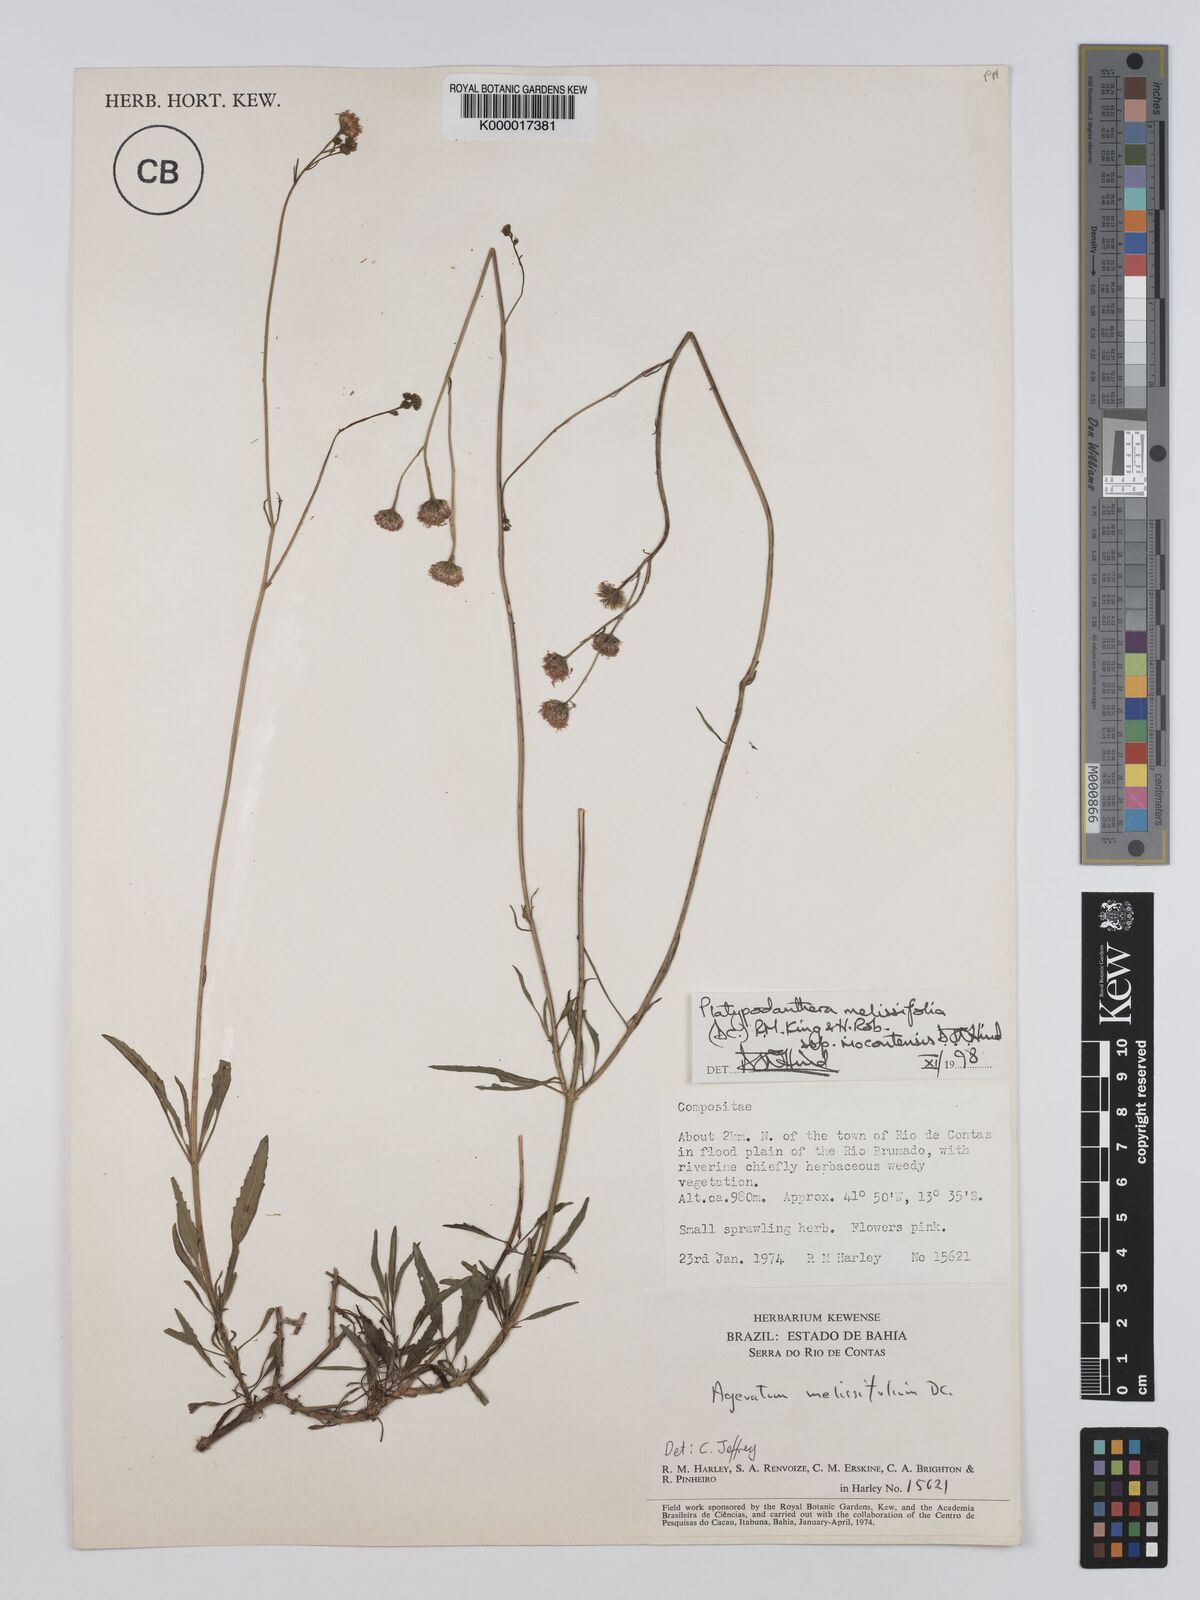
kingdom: Plantae
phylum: Tracheophyta
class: Magnoliopsida
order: Asterales
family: Asteraceae
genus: Platypodanthera
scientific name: Platypodanthera melissifolia
